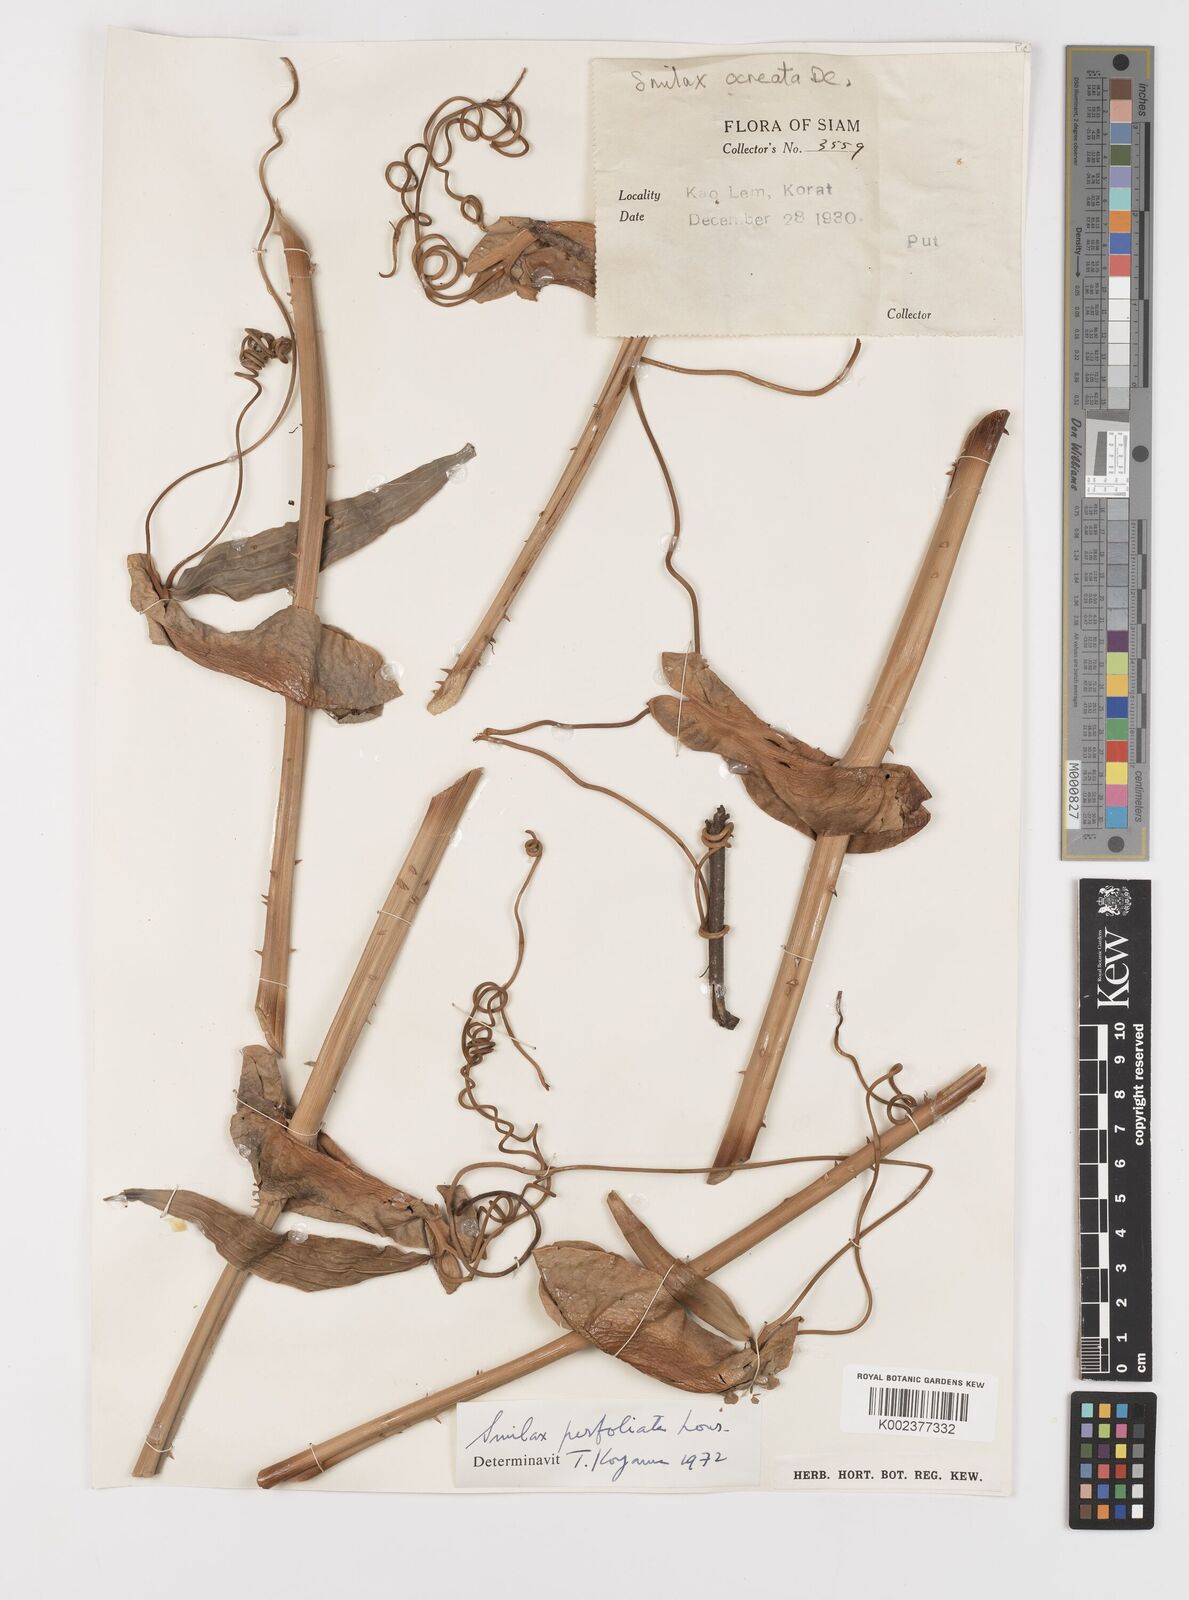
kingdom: Plantae
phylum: Tracheophyta
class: Liliopsida
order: Liliales
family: Smilacaceae
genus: Smilax
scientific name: Smilax perfoliata
